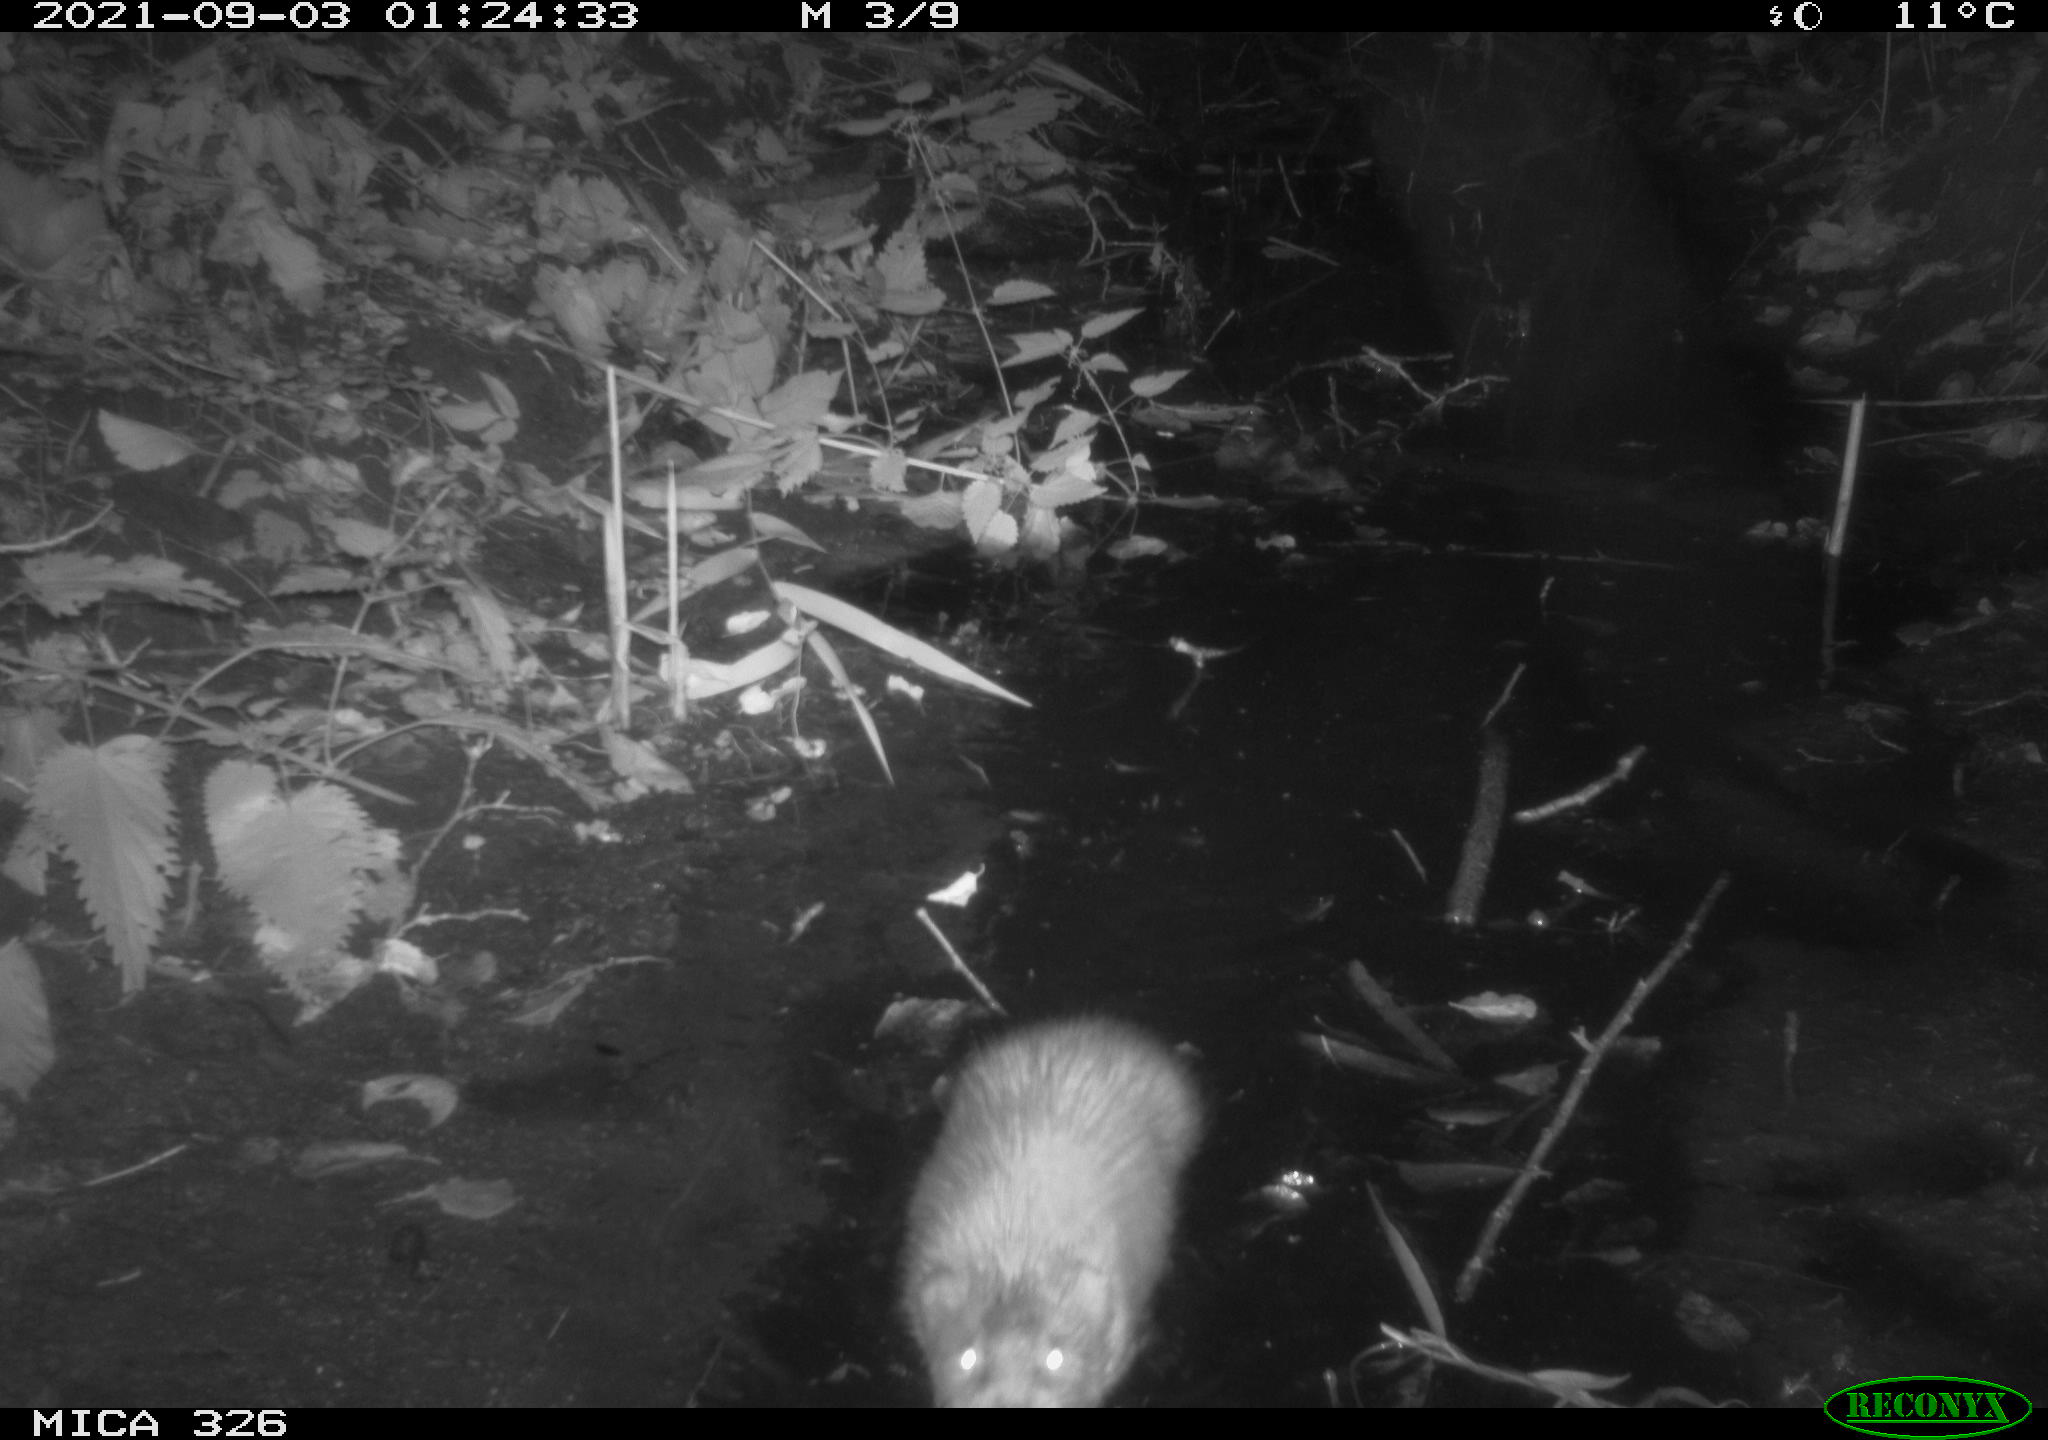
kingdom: Animalia
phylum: Chordata
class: Mammalia
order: Rodentia
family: Cricetidae
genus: Ondatra
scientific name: Ondatra zibethicus
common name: Muskrat
